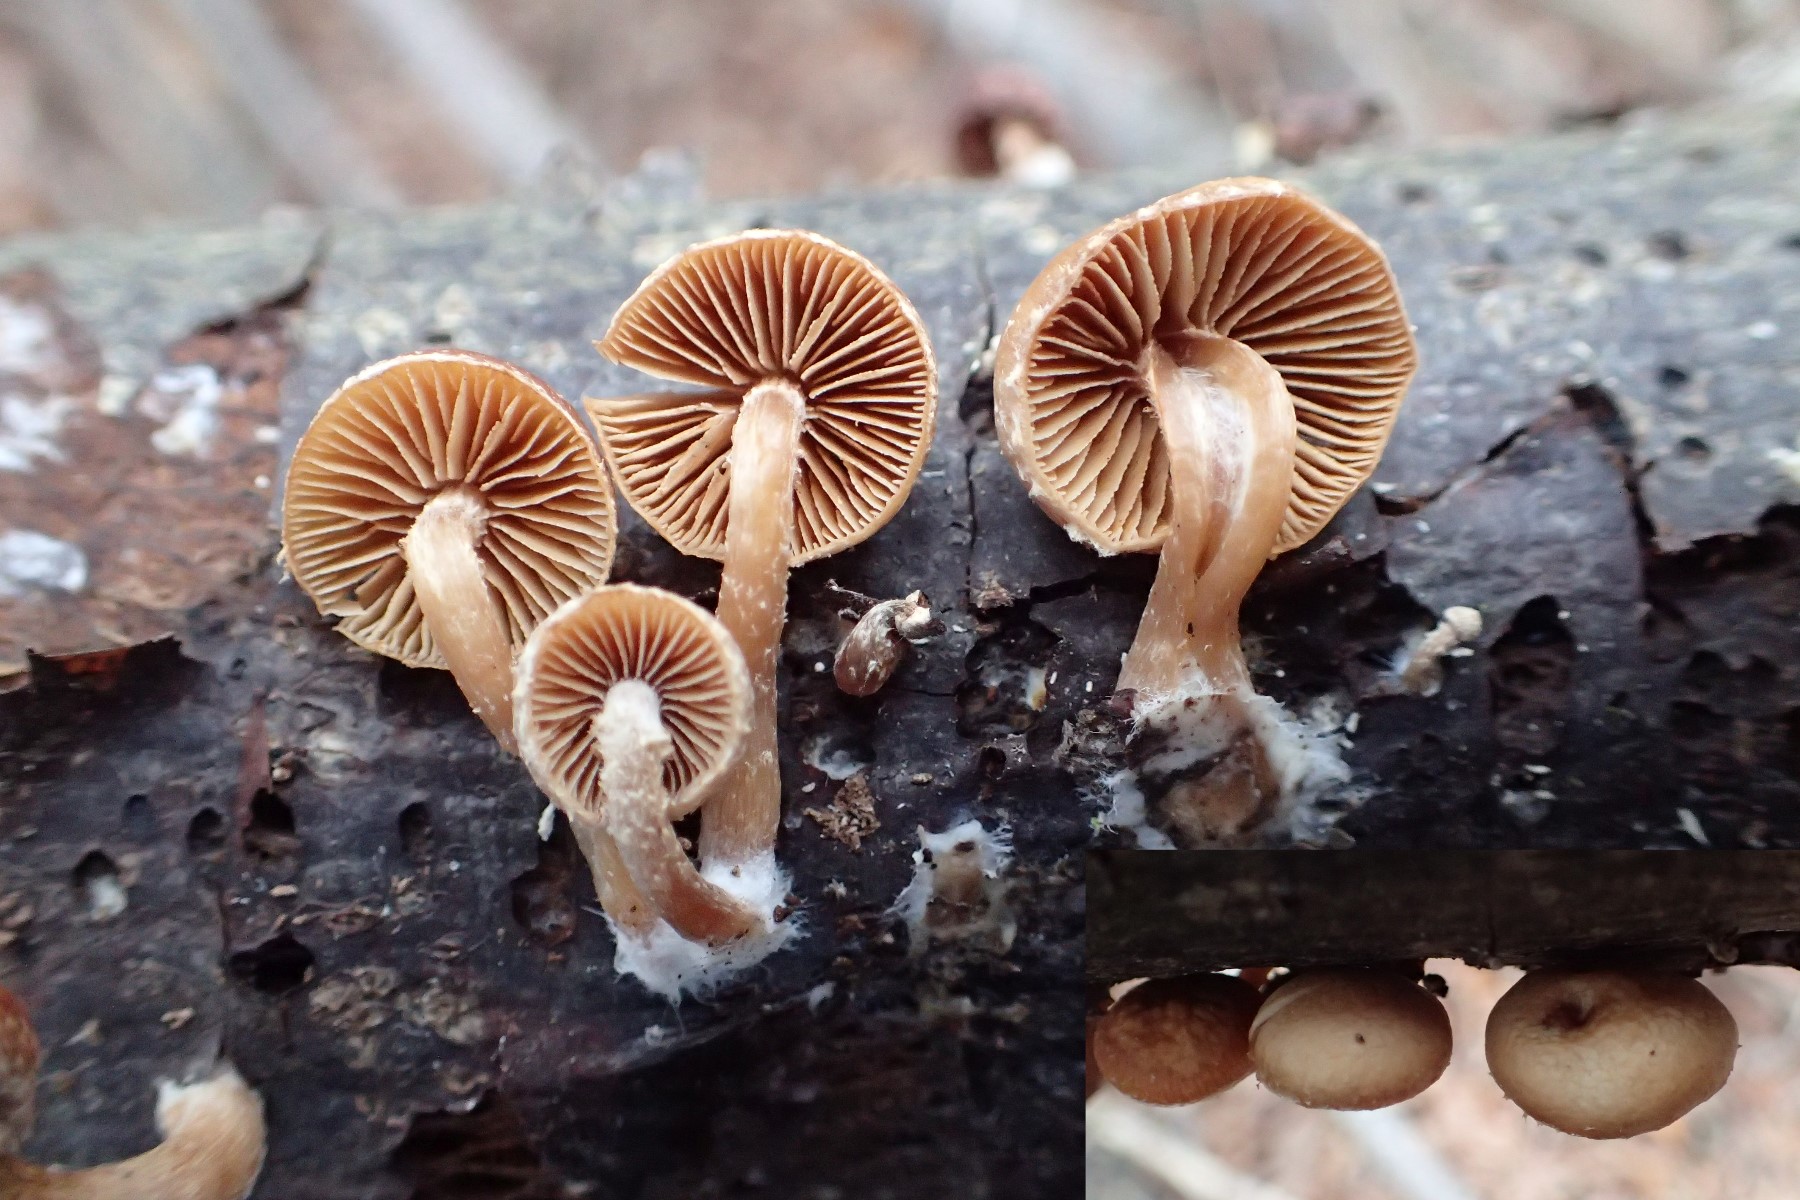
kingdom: Fungi
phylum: Basidiomycota
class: Agaricomycetes
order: Agaricales
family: Tubariaceae
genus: Tubaria
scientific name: Tubaria furfuracea
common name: kliddet fnughat
